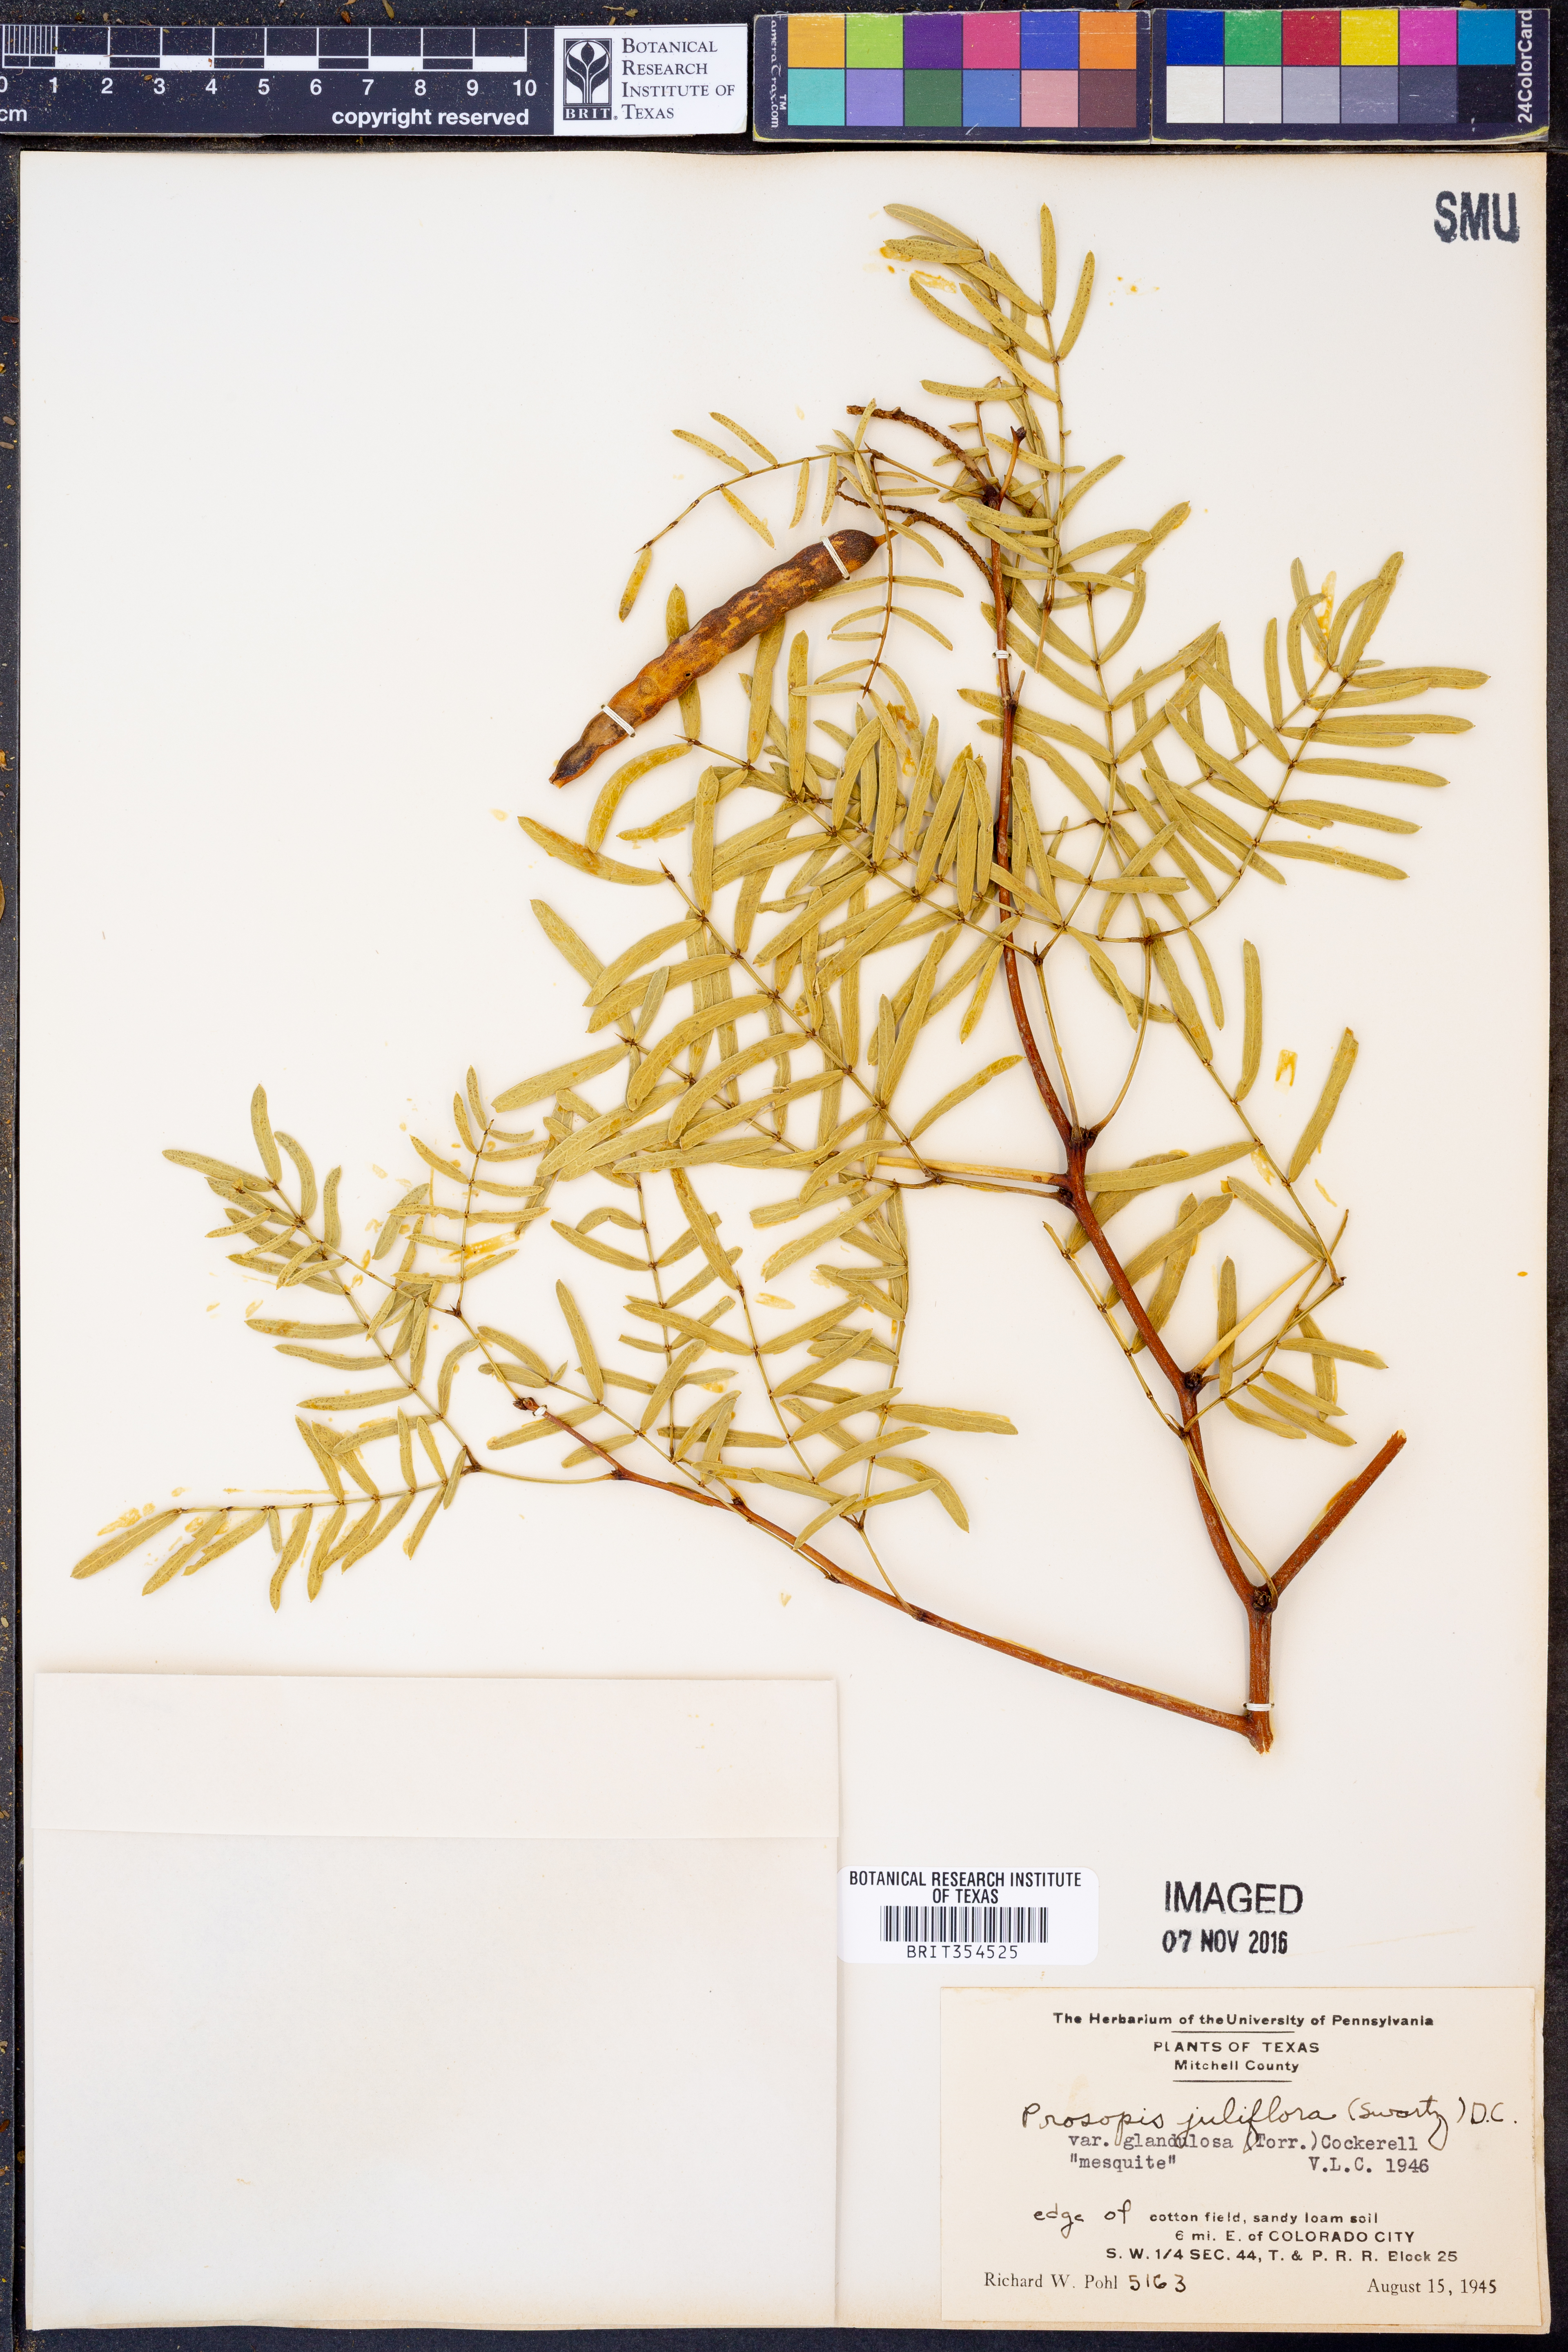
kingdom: Plantae
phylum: Tracheophyta
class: Magnoliopsida
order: Fabales
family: Fabaceae
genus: Prosopis
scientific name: Prosopis glandulosa
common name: Honey mesquite
